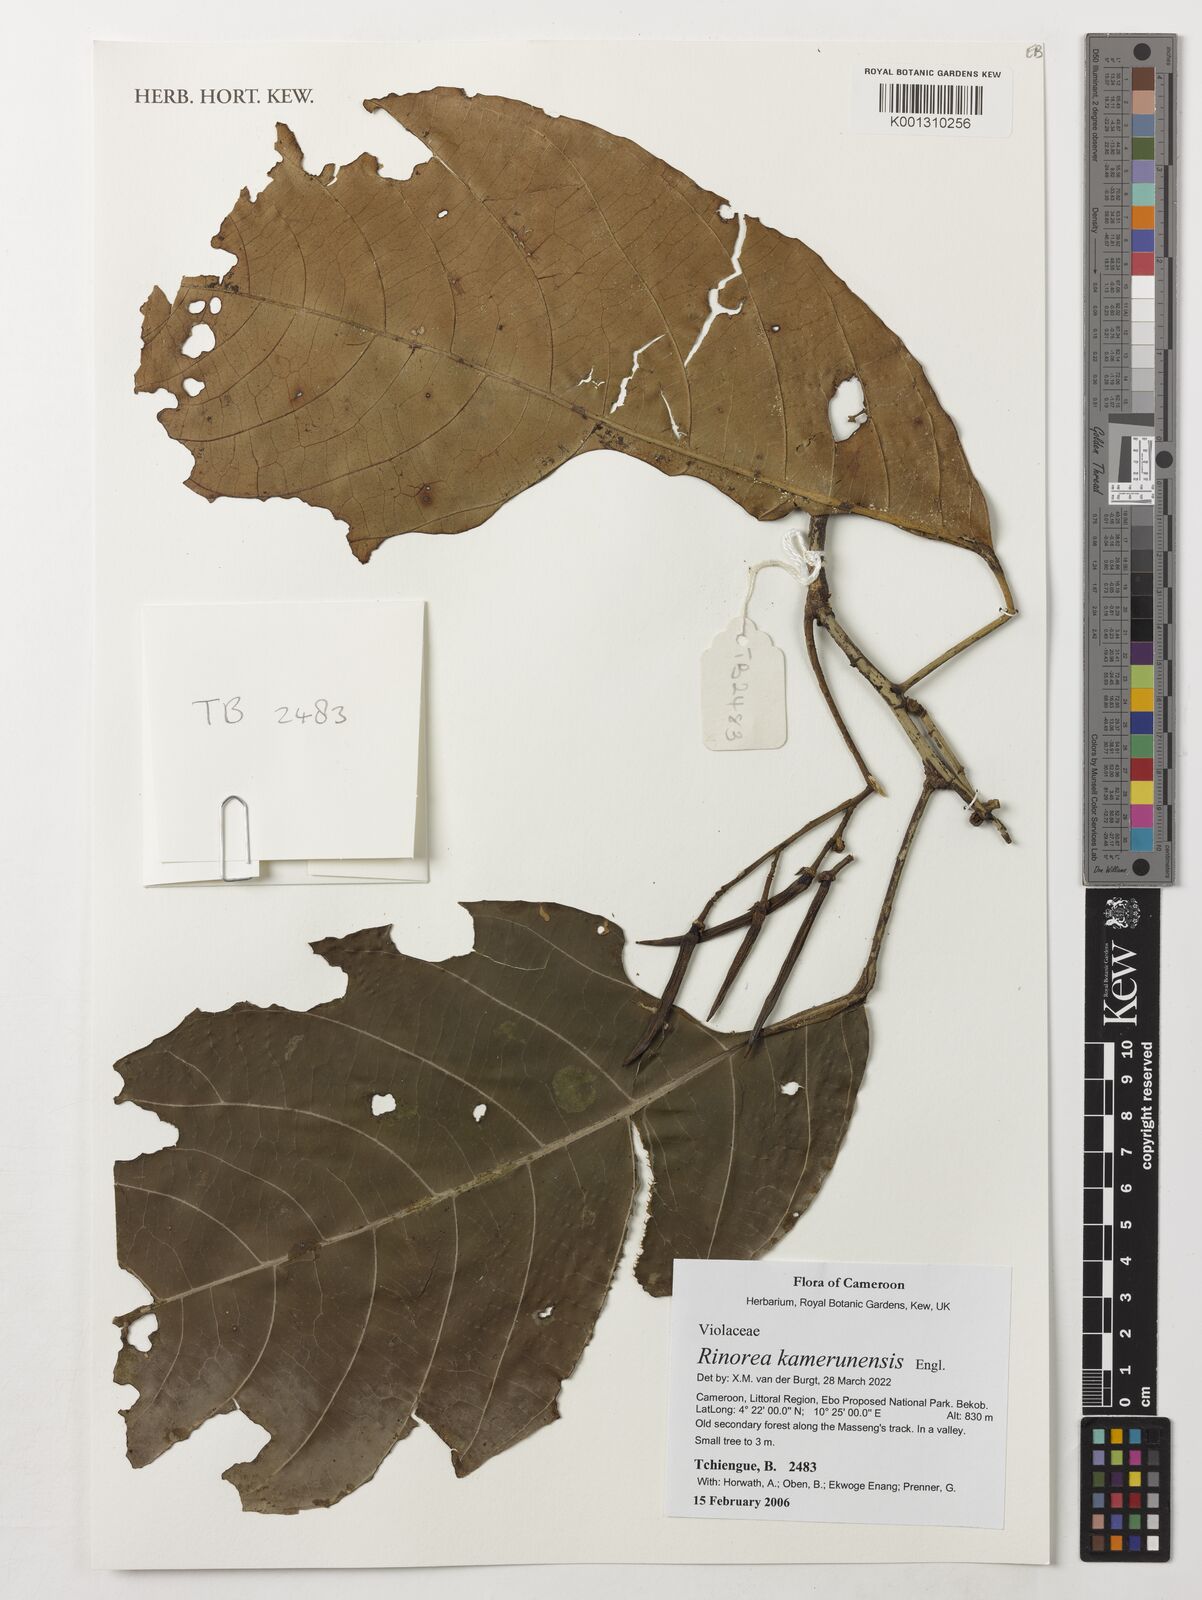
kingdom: Plantae
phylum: Tracheophyta
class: Magnoliopsida
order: Malpighiales
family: Violaceae
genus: Rinorea
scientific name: Rinorea kamerunensis
